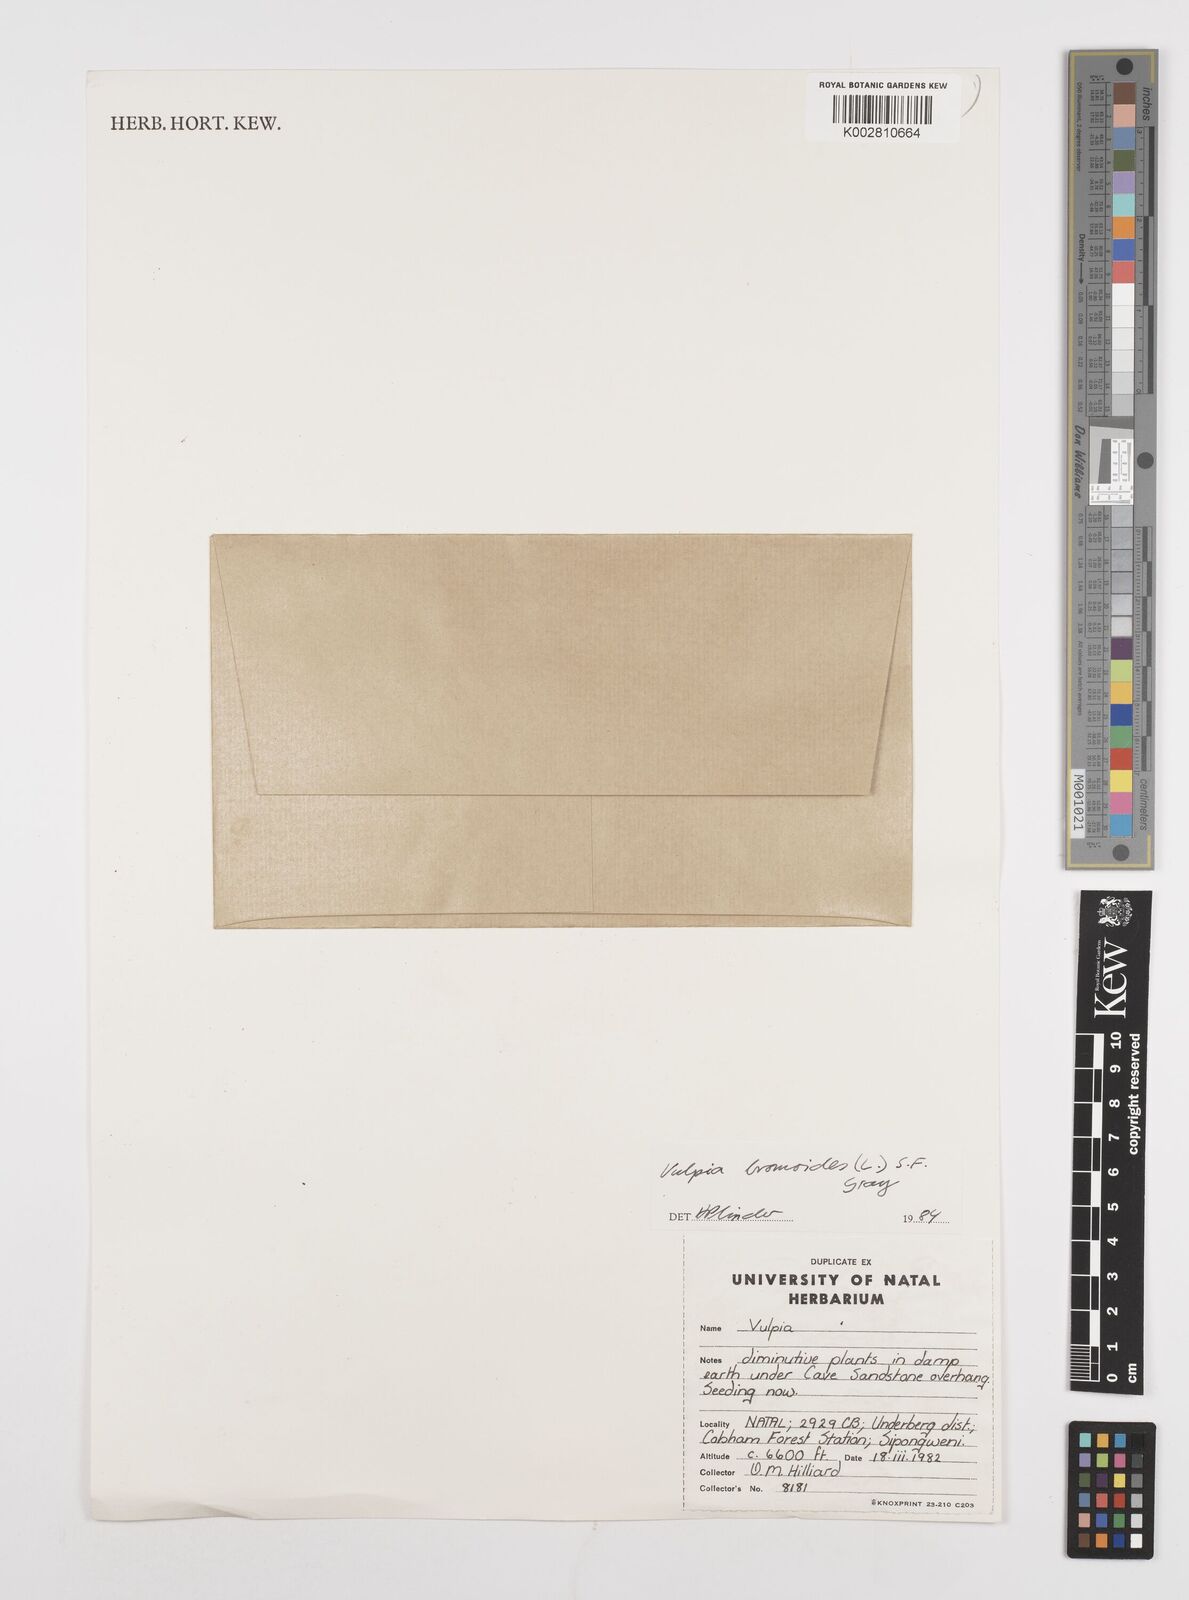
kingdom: Plantae
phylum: Tracheophyta
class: Liliopsida
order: Poales
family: Poaceae
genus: Festuca
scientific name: Festuca bromoides
